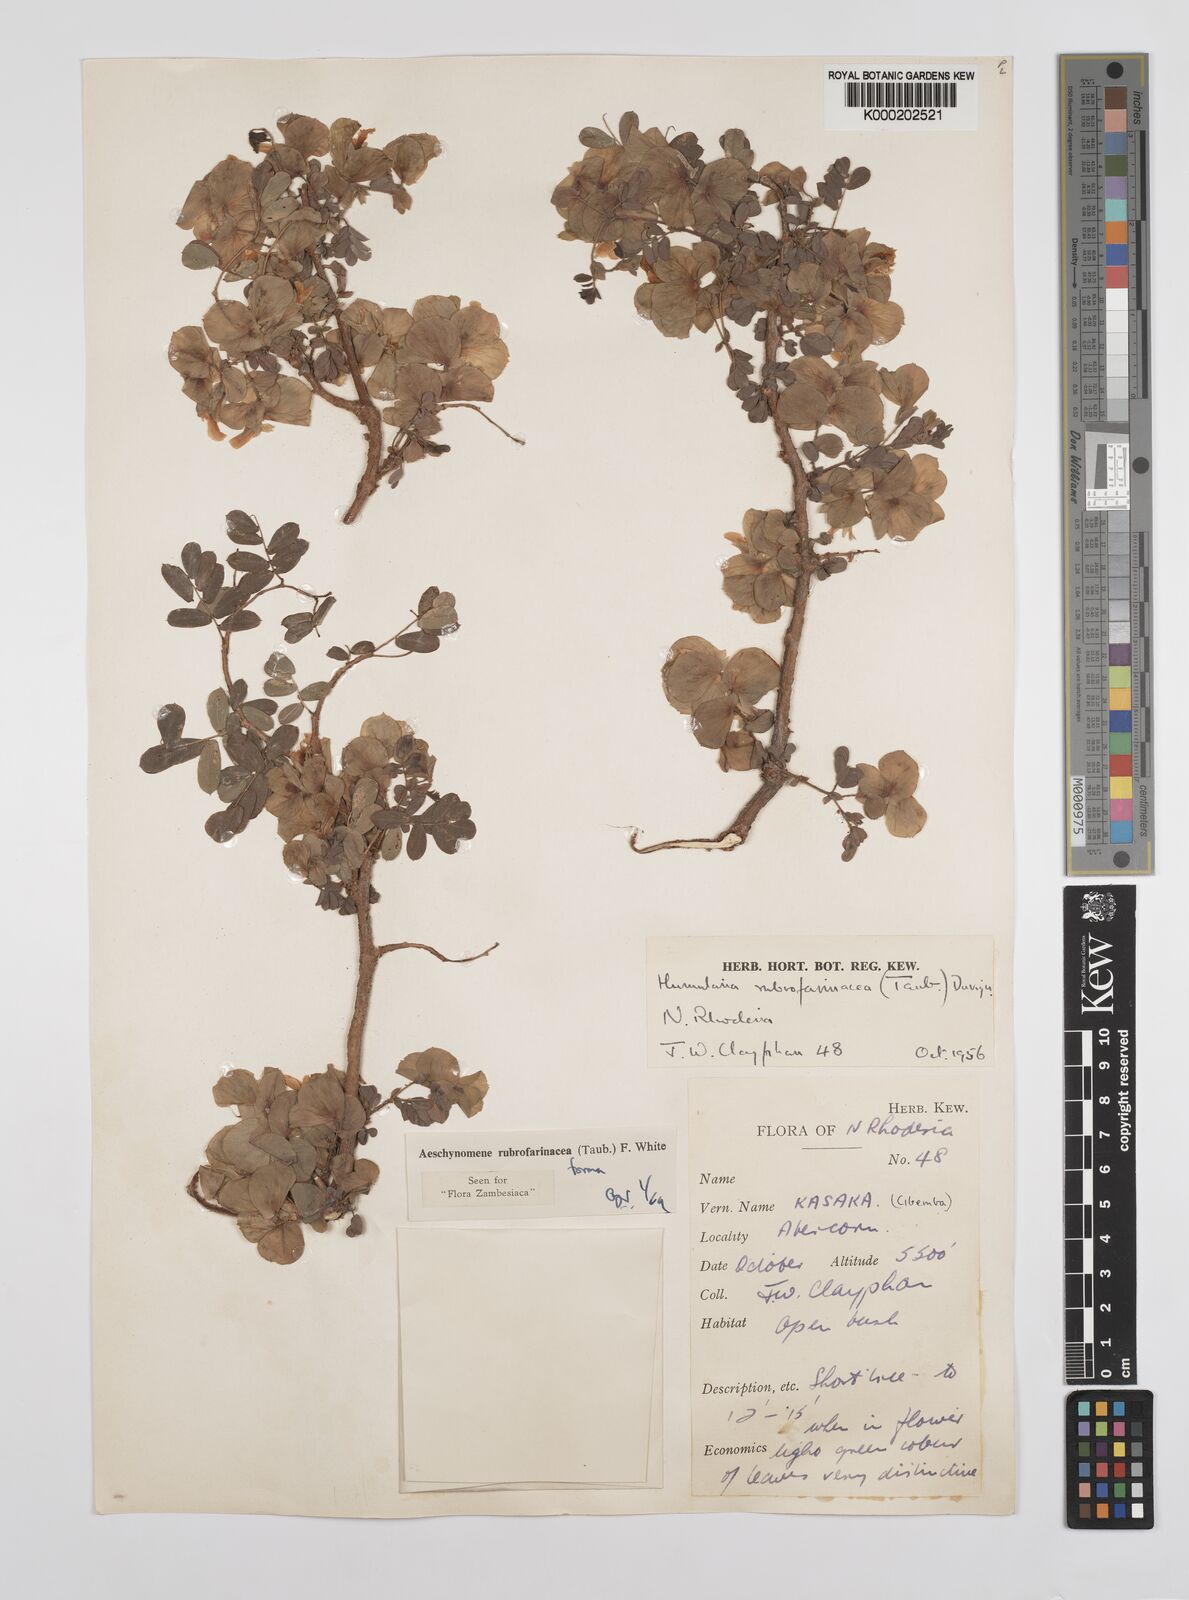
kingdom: Plantae
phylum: Tracheophyta
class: Magnoliopsida
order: Fabales
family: Fabaceae
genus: Aeschynomene
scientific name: Aeschynomene rubrofarinacea
